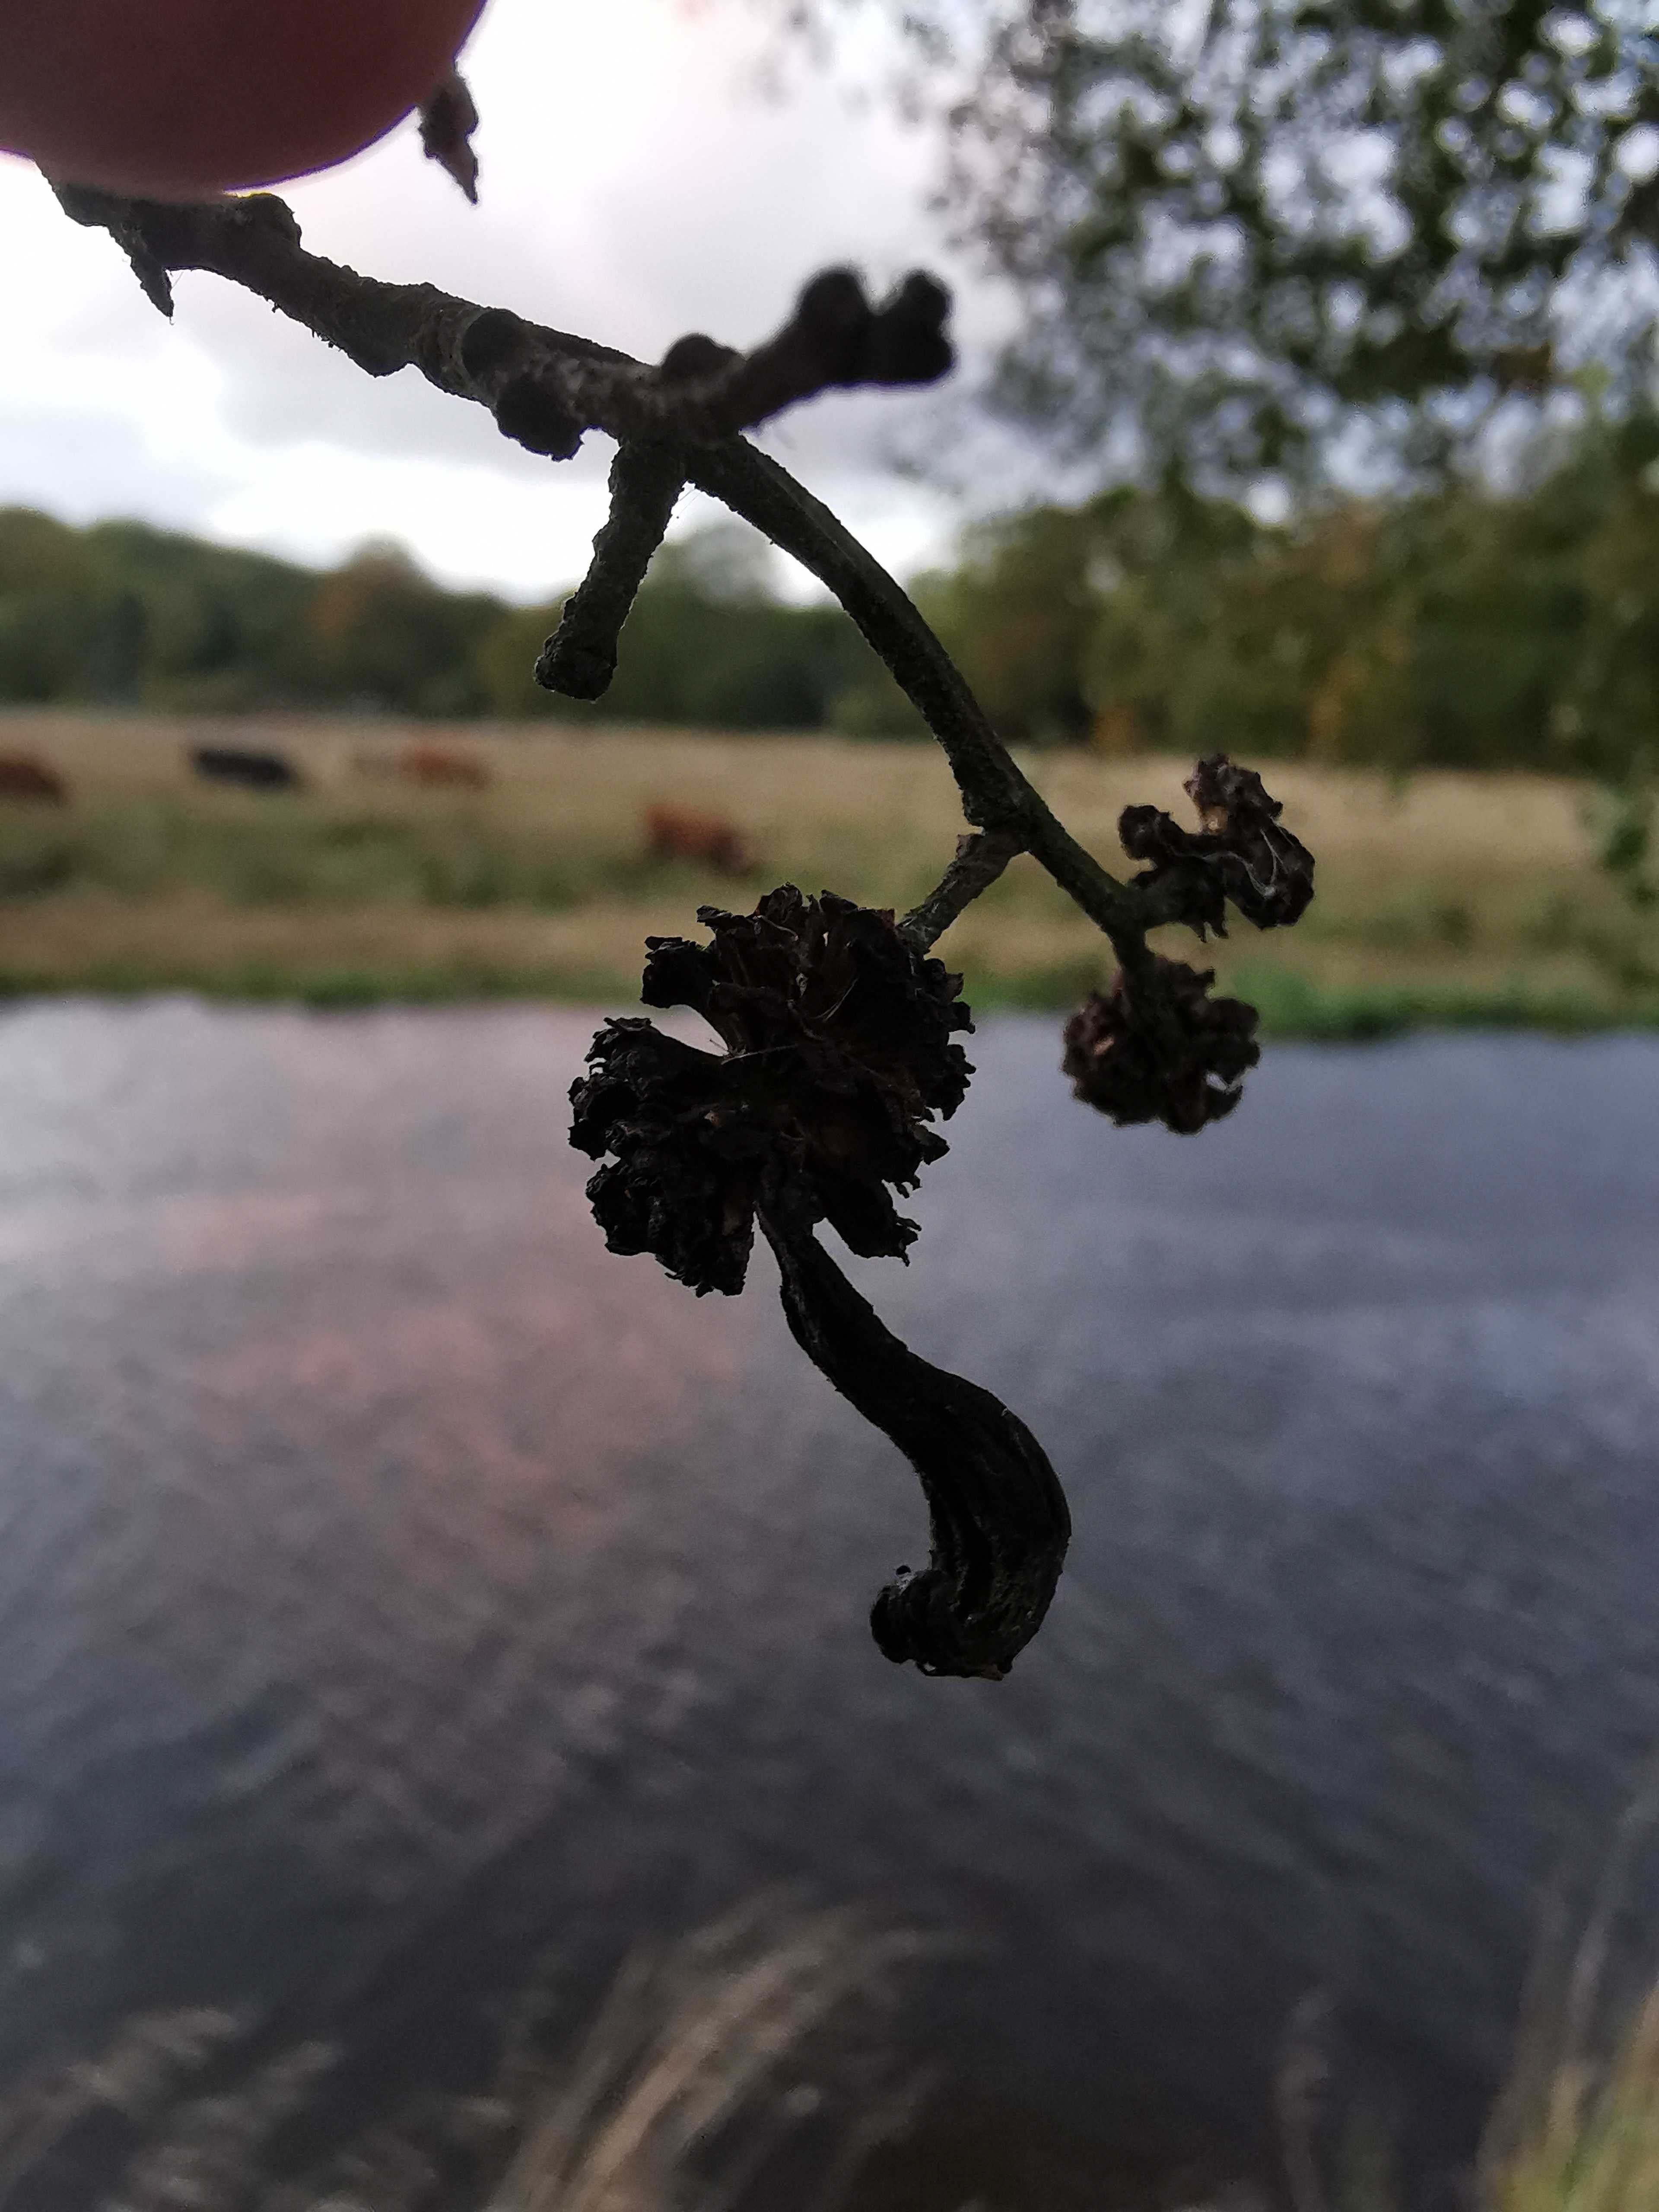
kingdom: Fungi
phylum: Ascomycota
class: Taphrinomycetes
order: Taphrinales
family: Taphrinaceae
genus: Taphrina
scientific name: Taphrina alni
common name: Alder tongue
